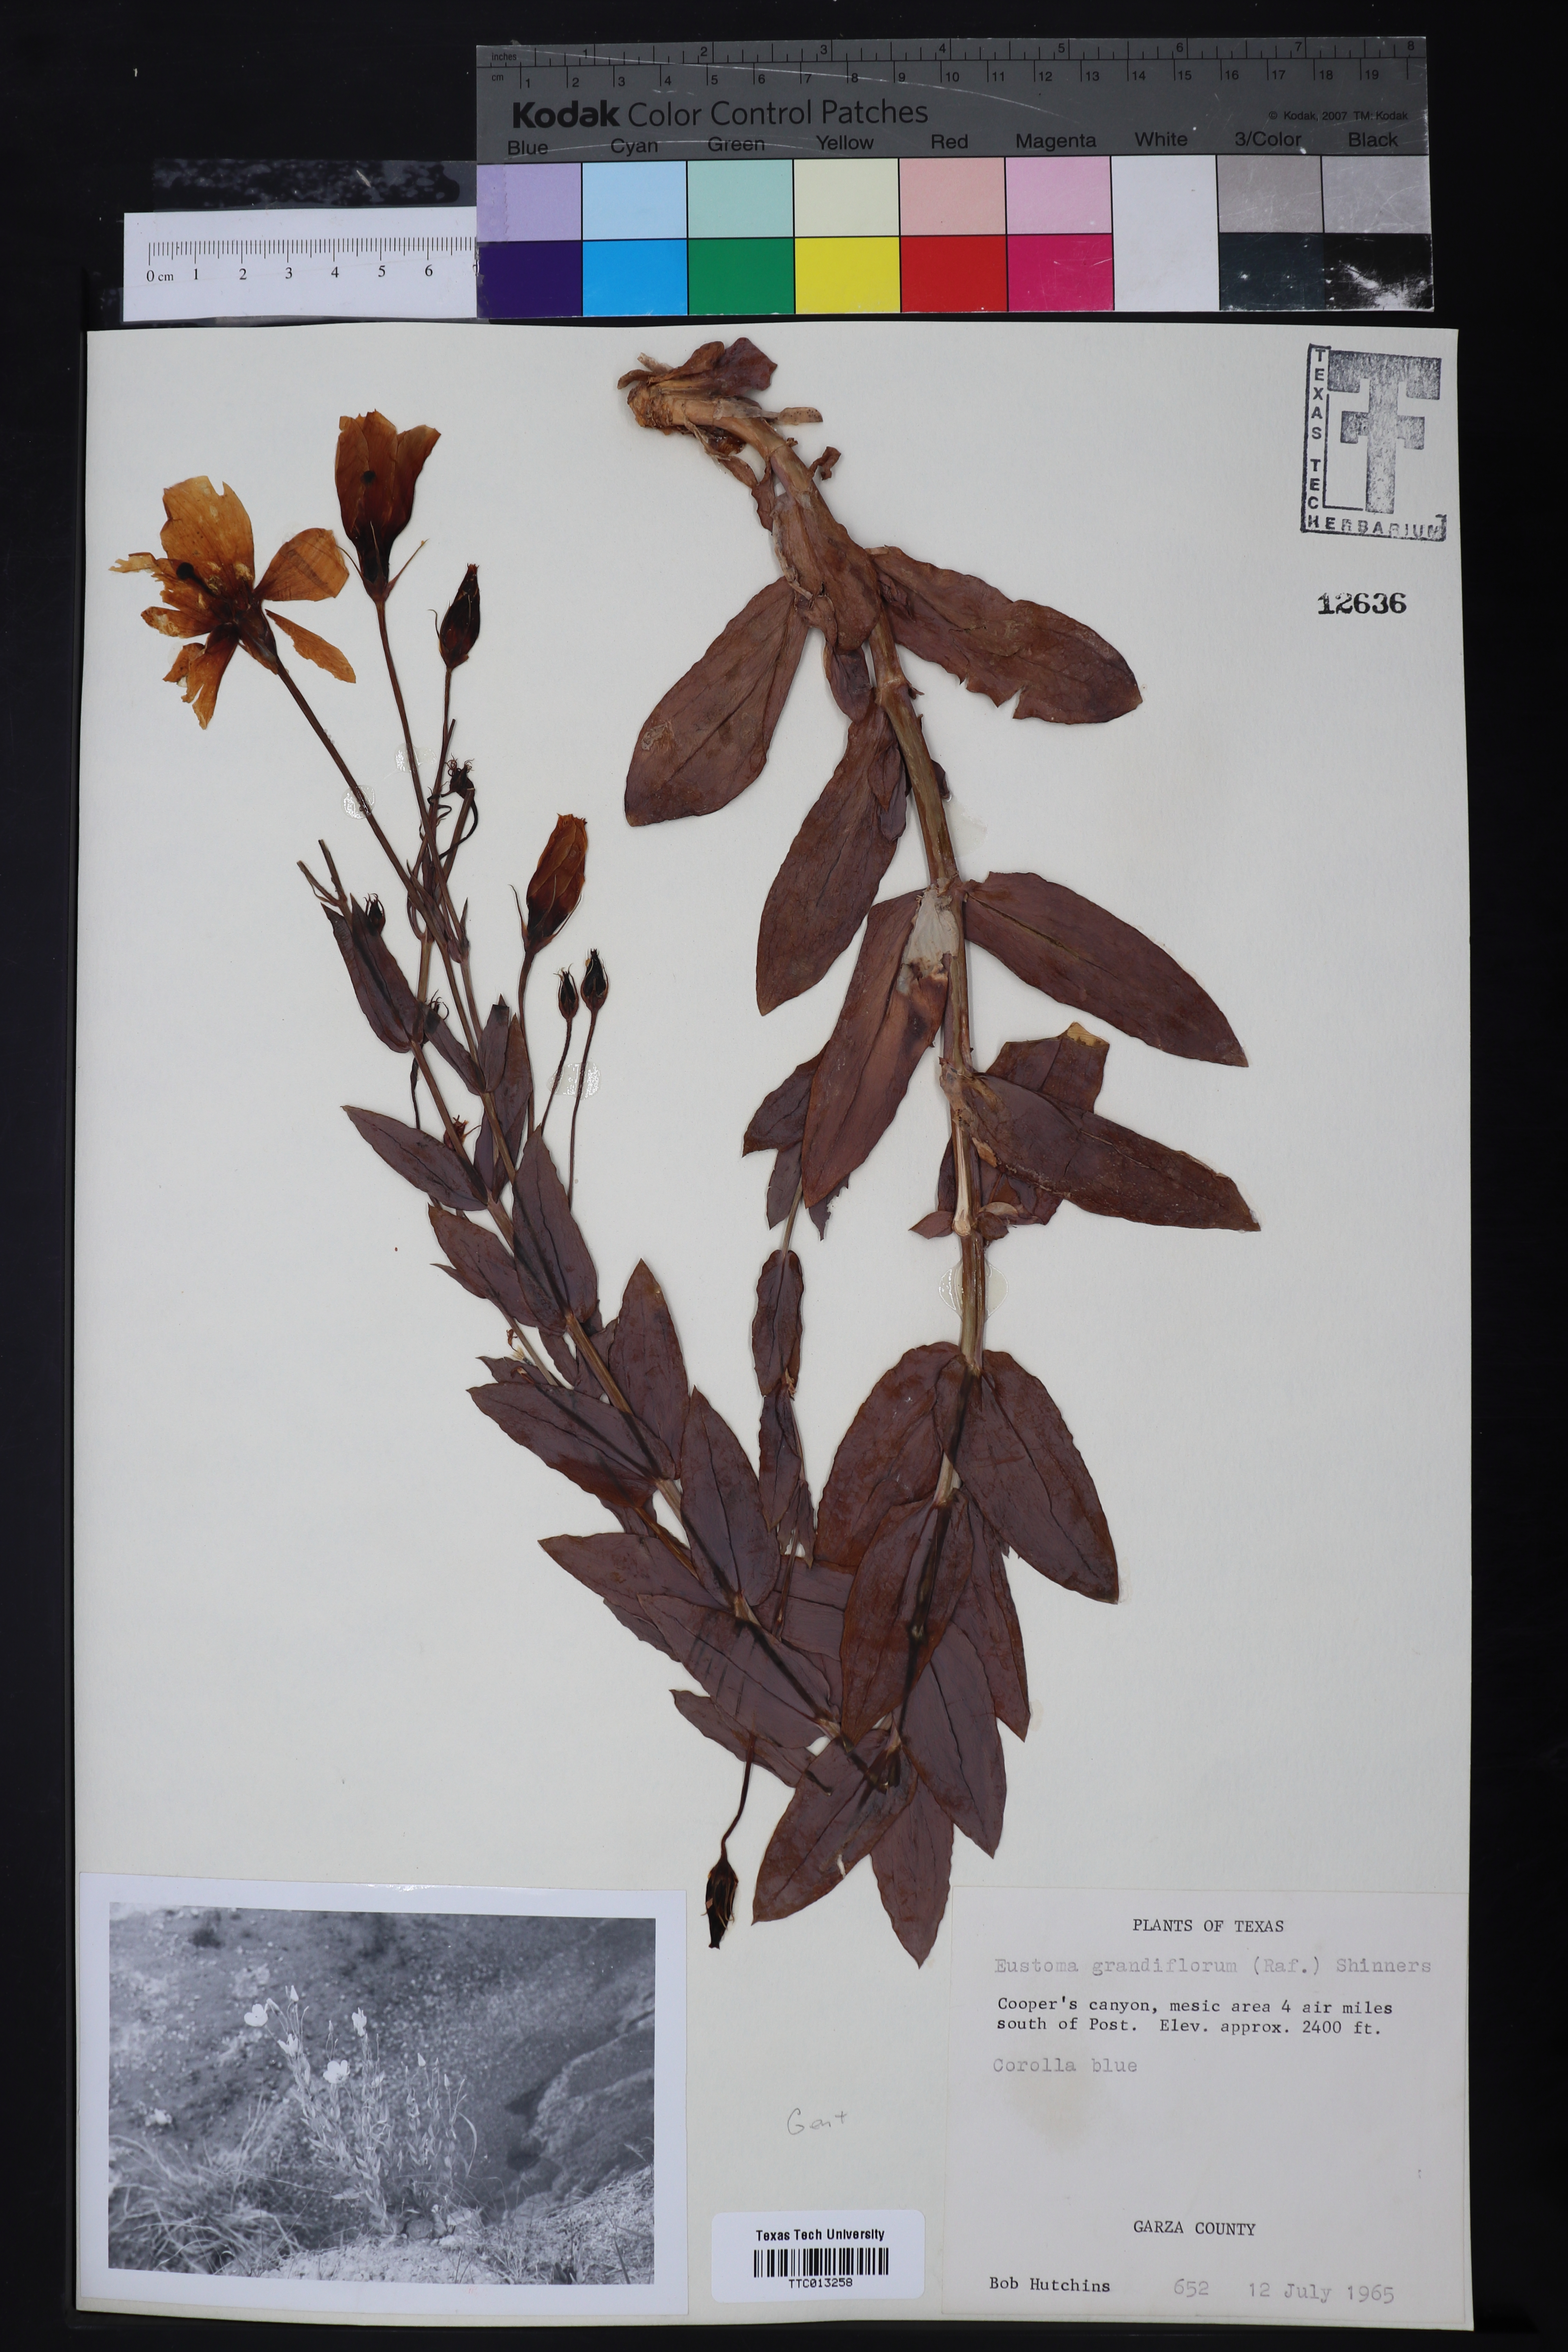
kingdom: Plantae
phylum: Tracheophyta
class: Magnoliopsida
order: Gentianales
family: Gentianaceae
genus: Eustoma
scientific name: Eustoma russellianum
